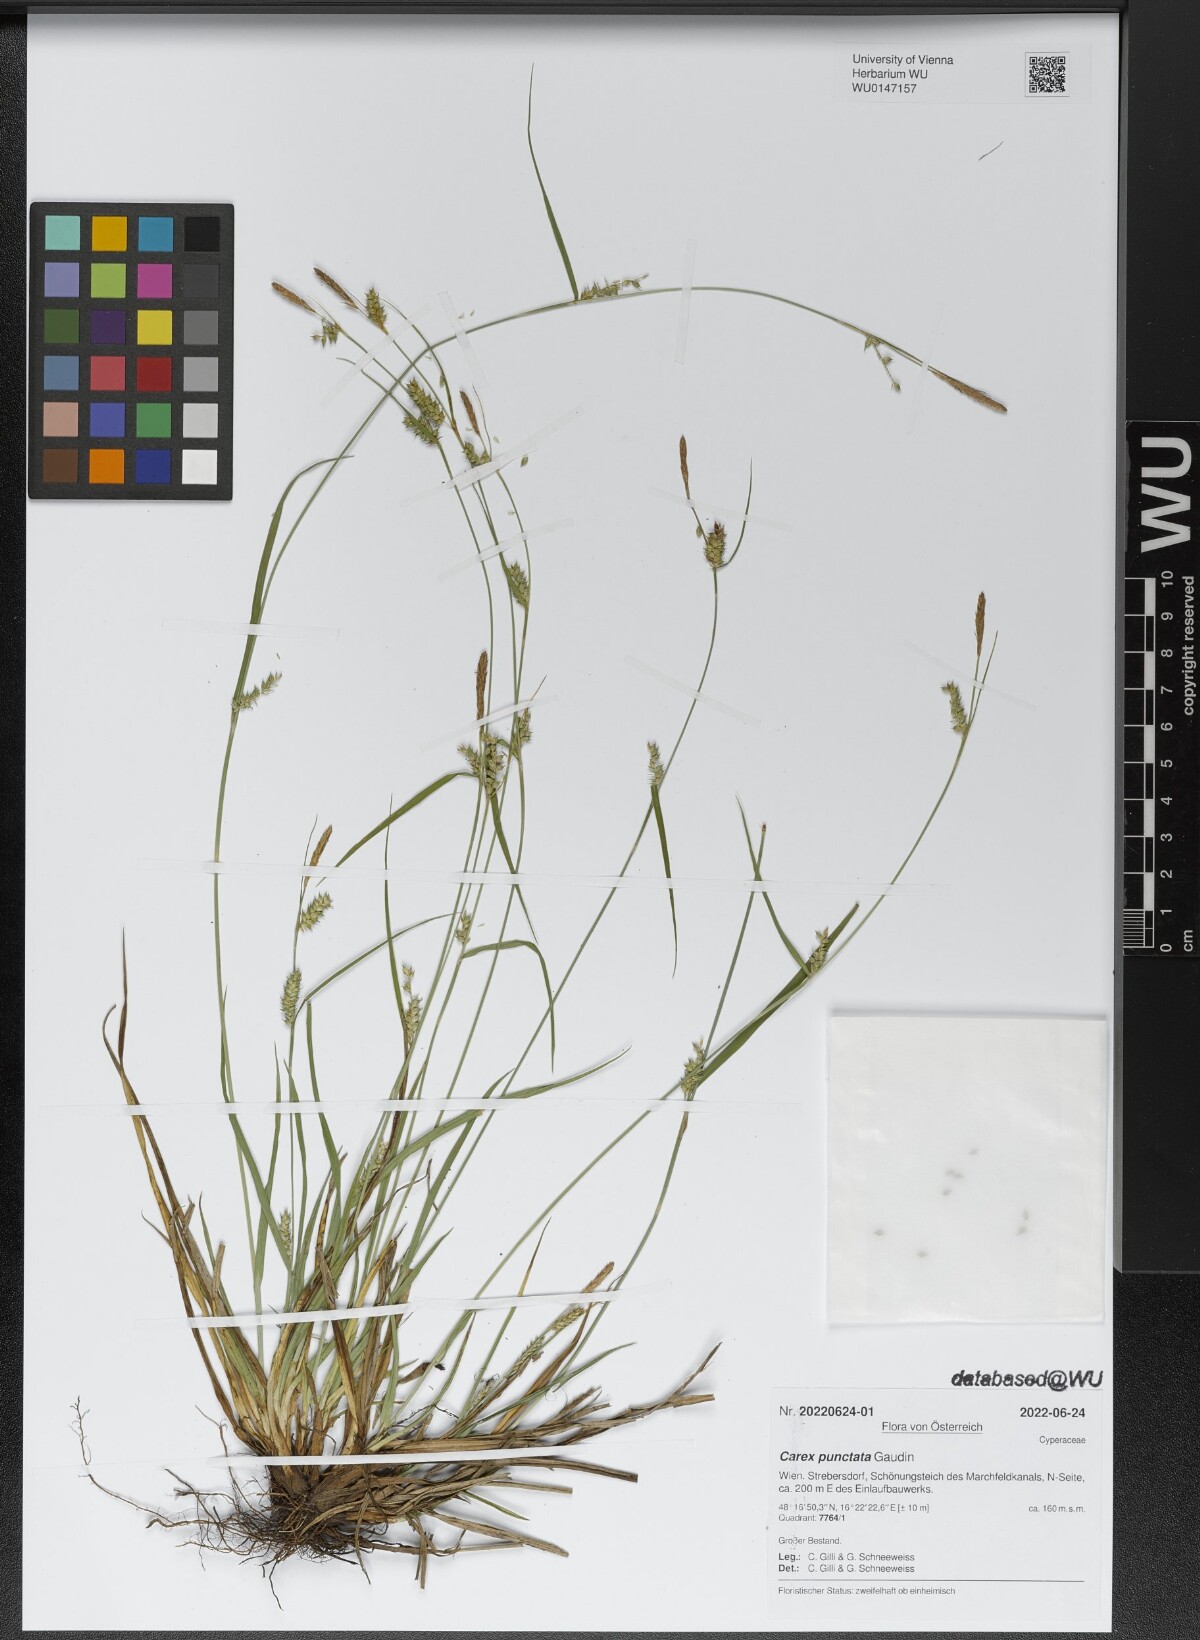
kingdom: Plantae
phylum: Tracheophyta
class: Liliopsida
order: Poales
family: Cyperaceae
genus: Carex
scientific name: Carex punctata
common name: Dotted sedge
